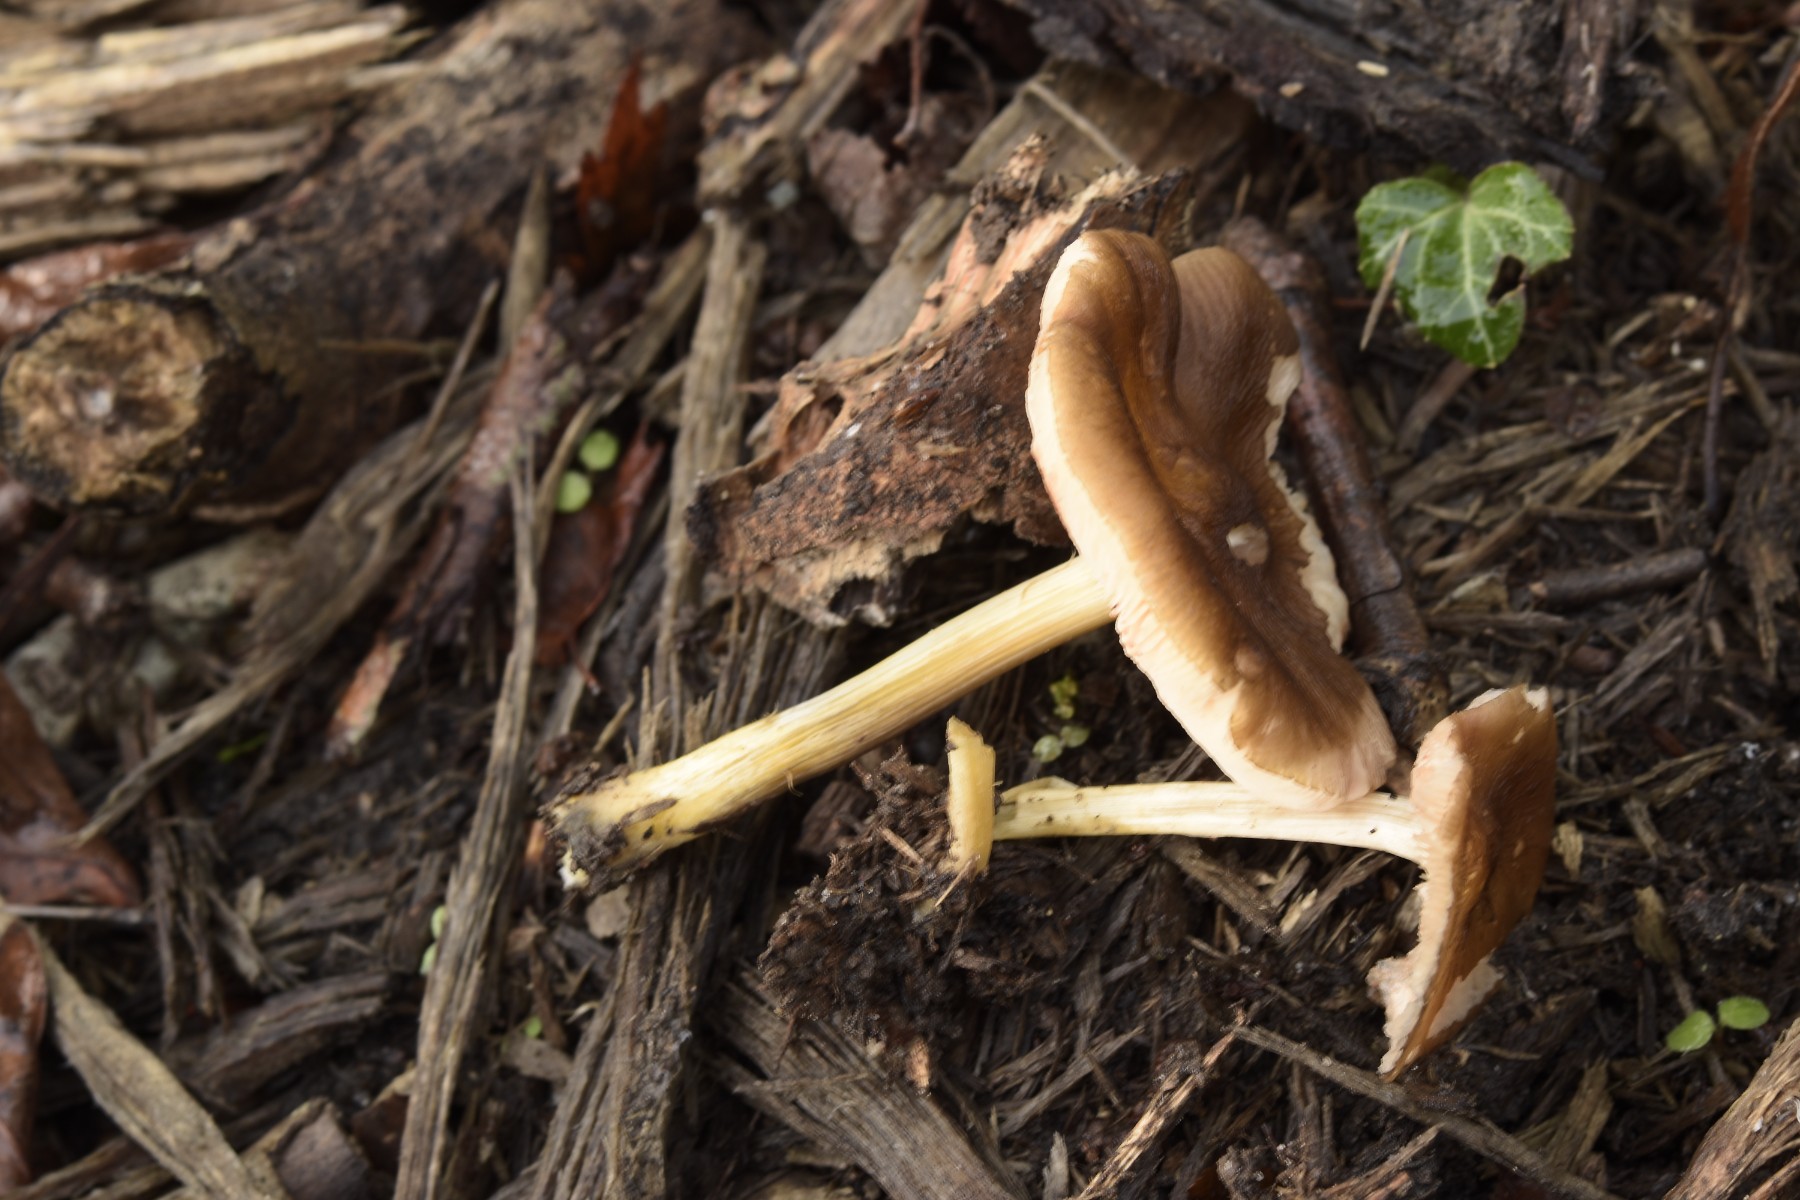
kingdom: Fungi
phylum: Basidiomycota
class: Agaricomycetes
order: Agaricales
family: Pluteaceae
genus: Pluteus
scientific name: Pluteus romellii
